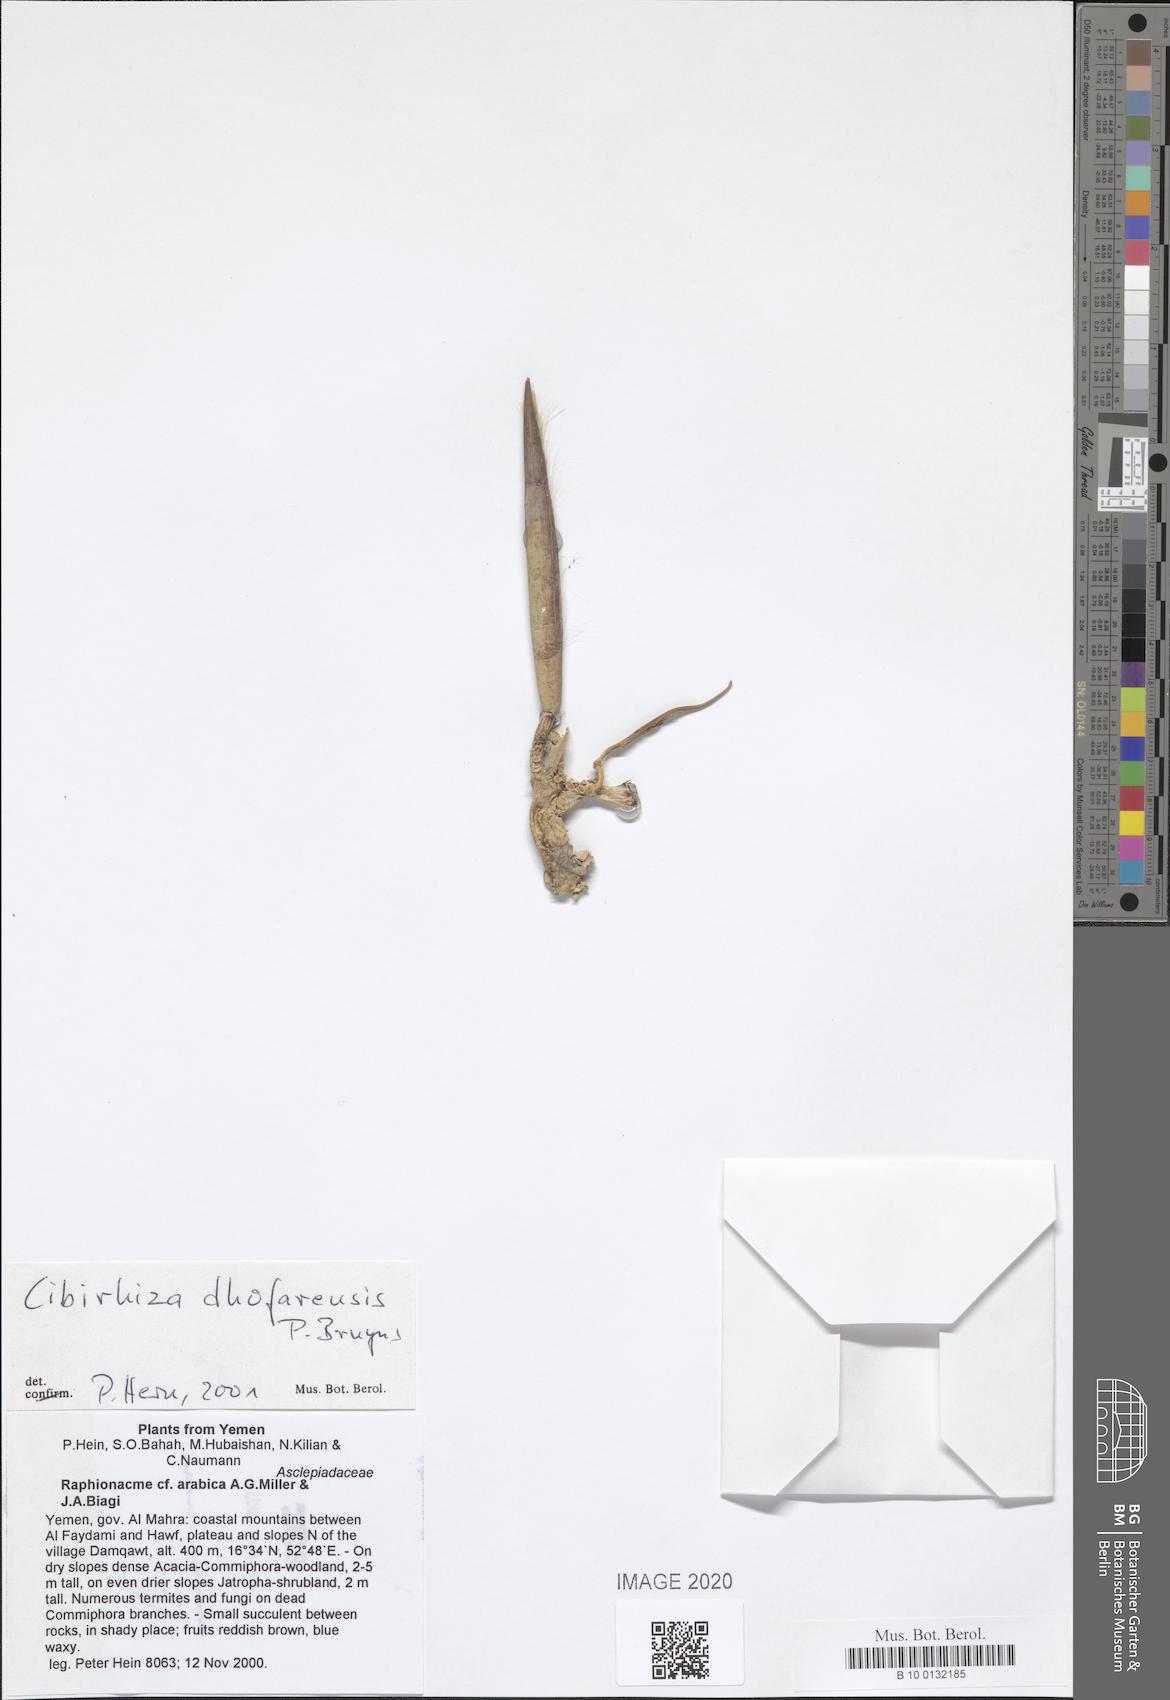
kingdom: Plantae
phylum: Tracheophyta
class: Magnoliopsida
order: Gentianales
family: Apocynaceae
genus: Raphionacme
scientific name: Raphionacme arabica
